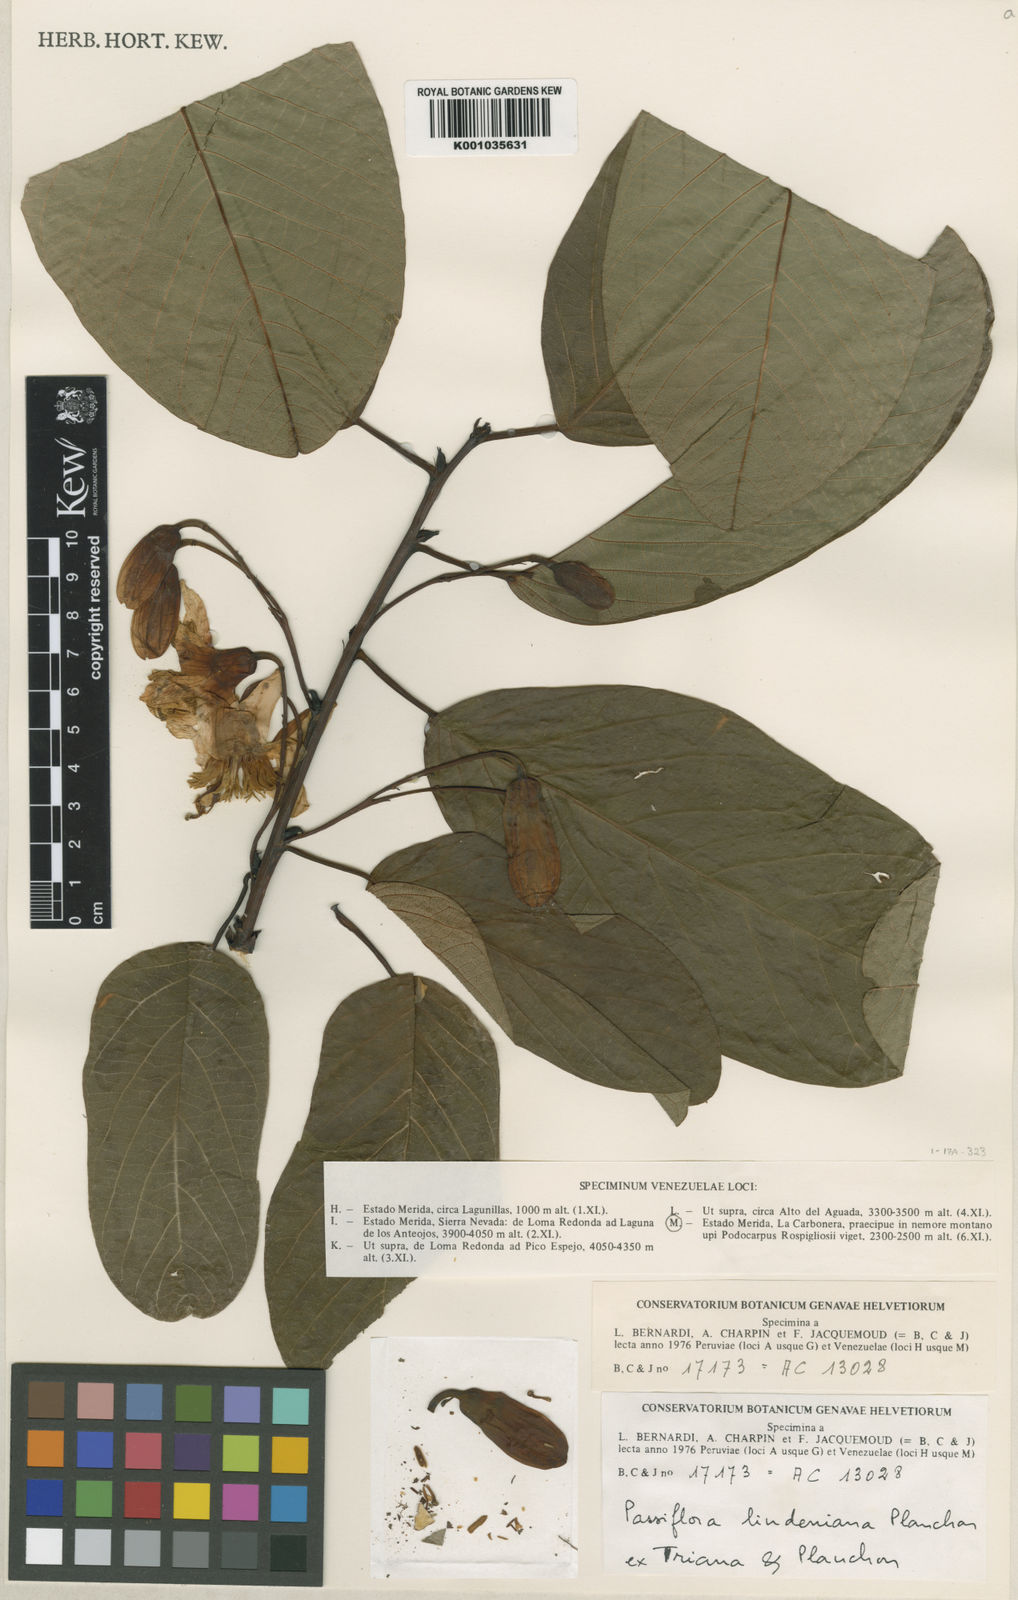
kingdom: Plantae
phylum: Tracheophyta
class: Magnoliopsida
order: Malpighiales
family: Passifloraceae
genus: Passiflora
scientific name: Passiflora lindeniana
